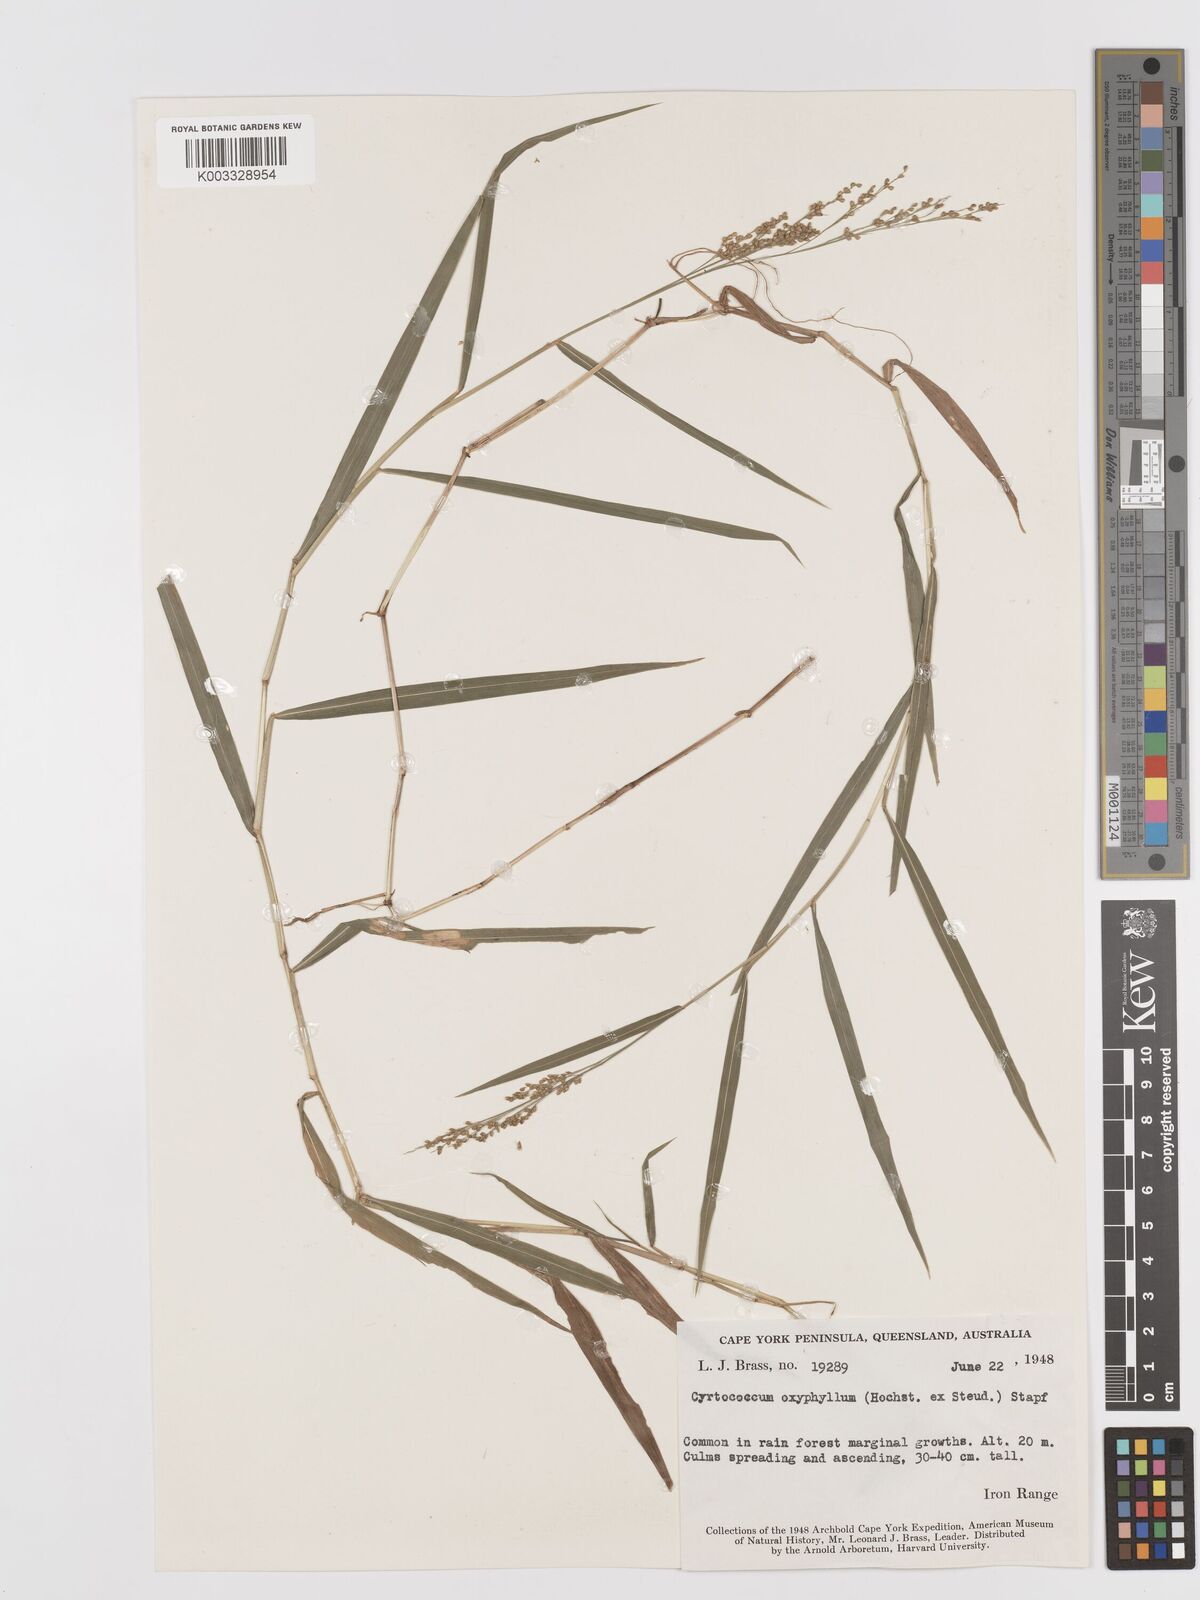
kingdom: Plantae
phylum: Tracheophyta
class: Liliopsida
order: Poales
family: Poaceae
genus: Cyrtococcum
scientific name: Cyrtococcum oxyphyllum
